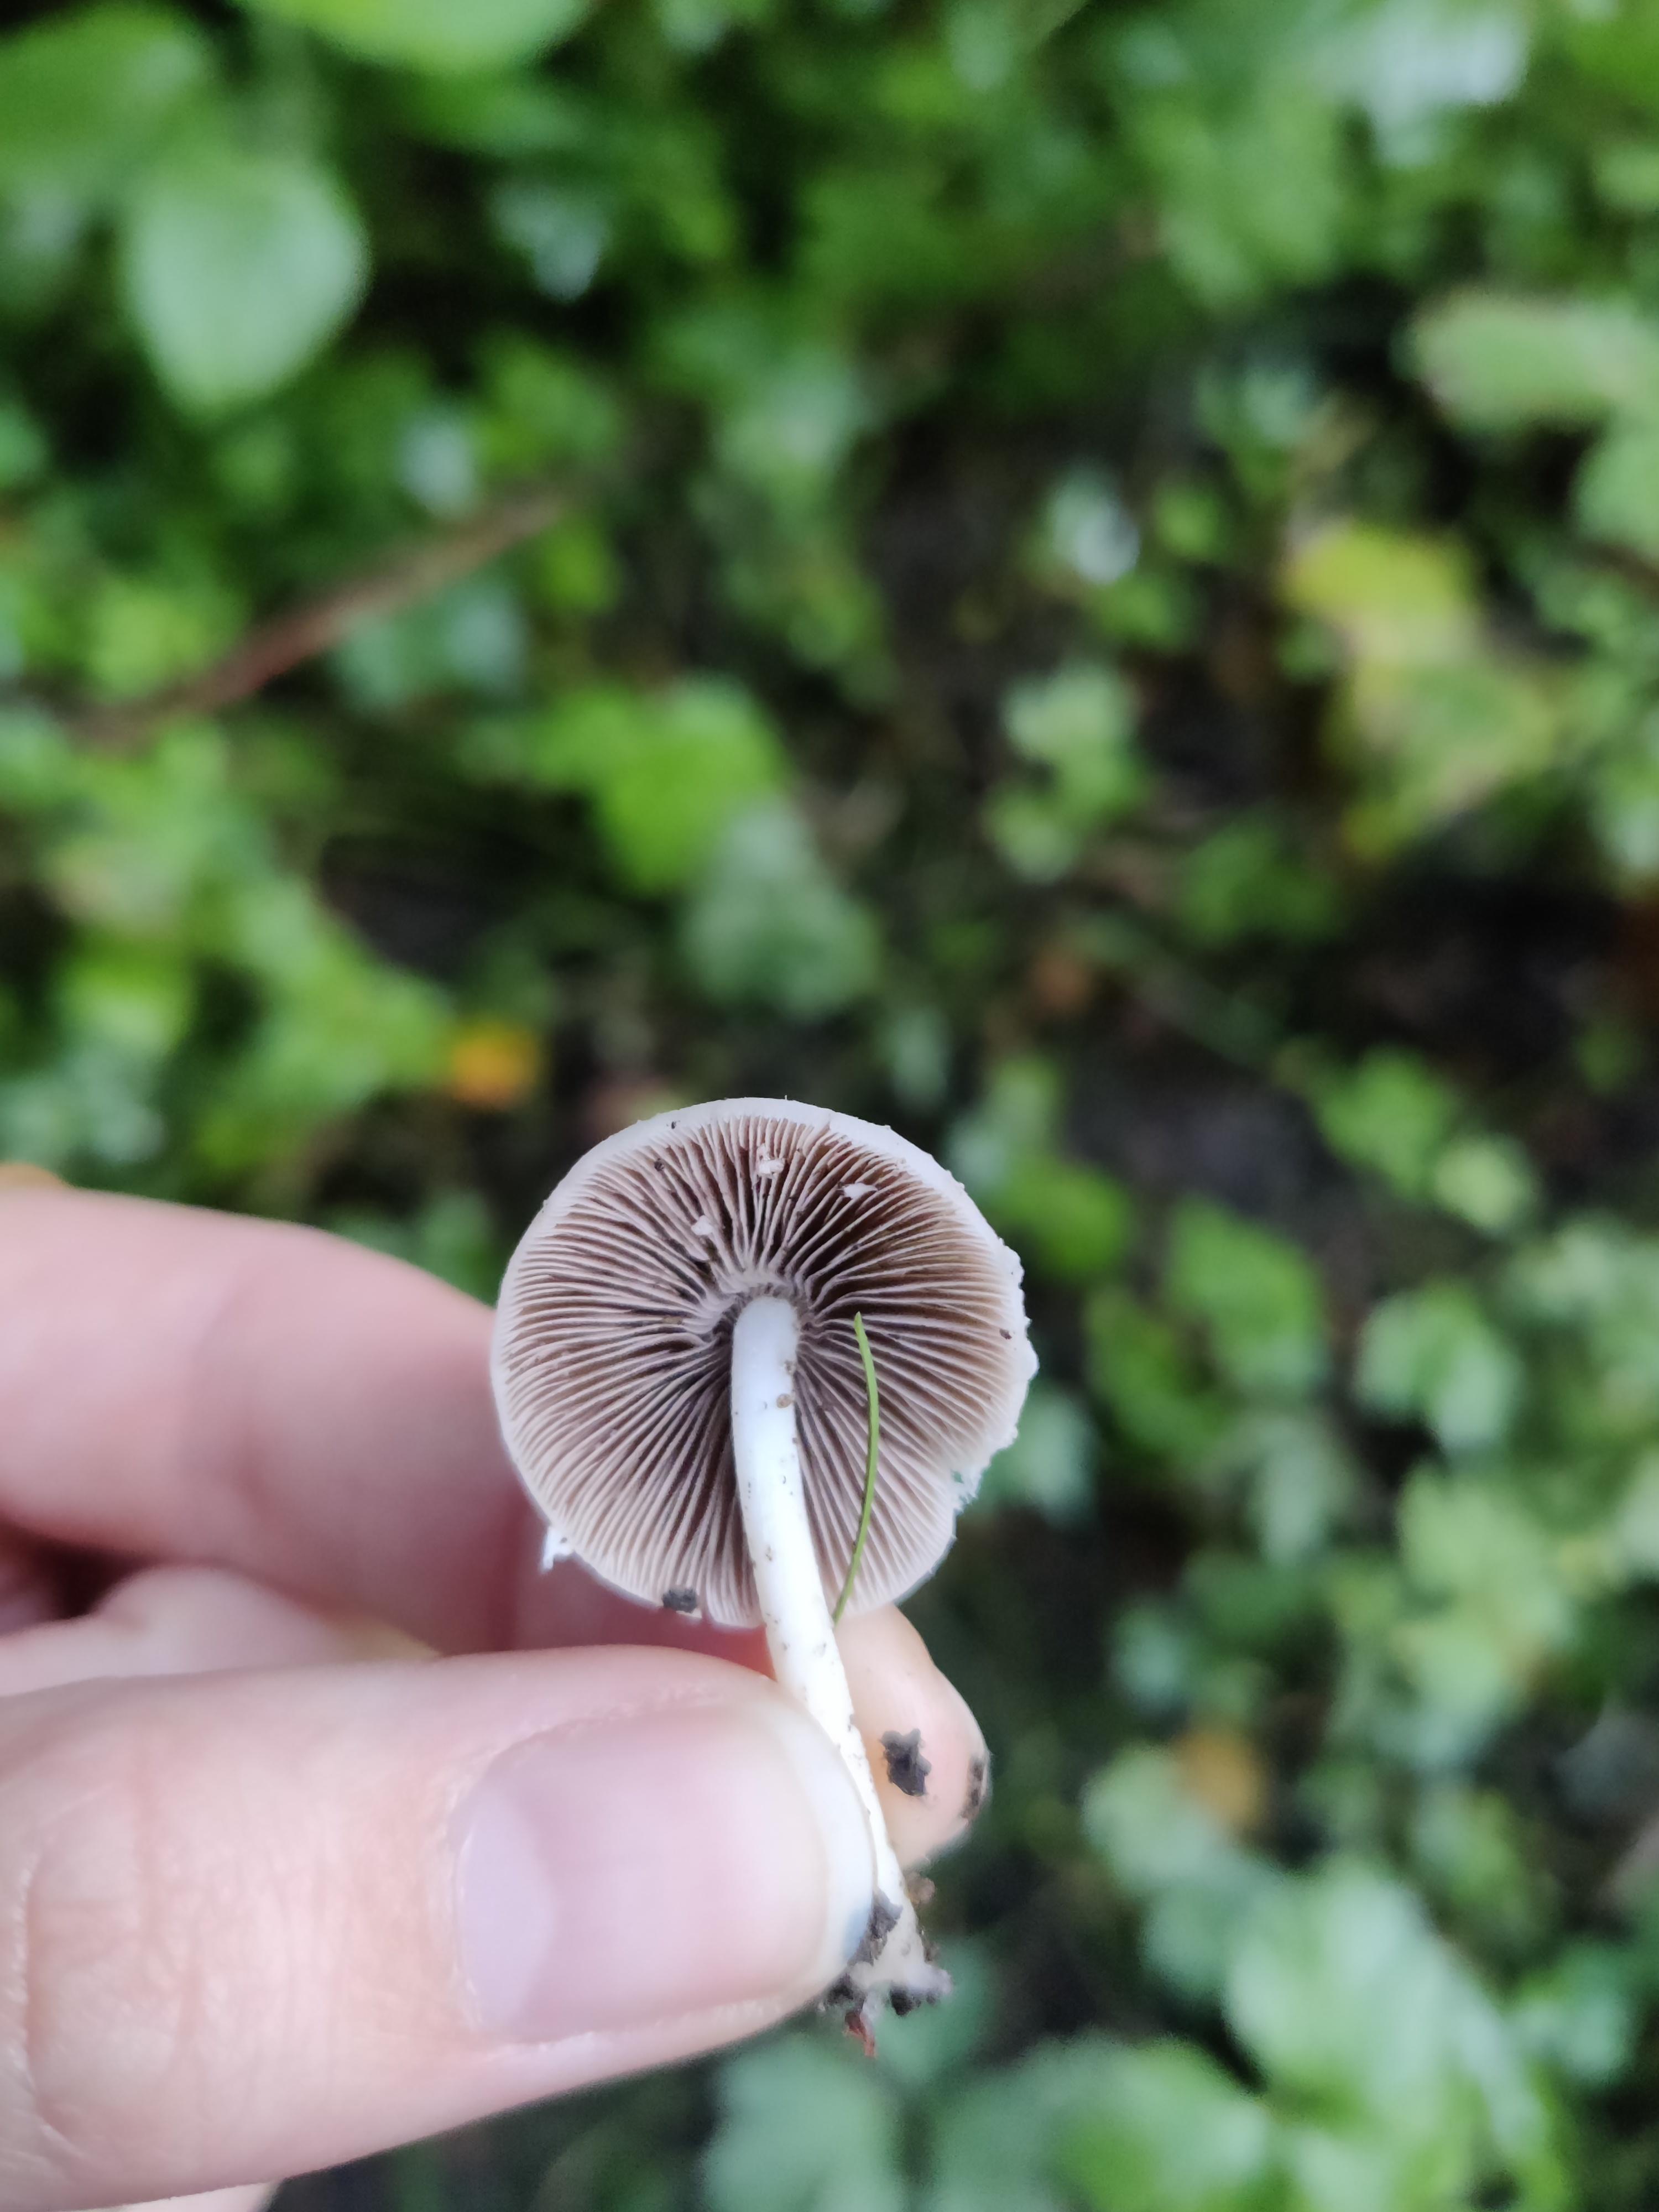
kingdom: Fungi
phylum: Basidiomycota
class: Agaricomycetes
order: Agaricales
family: Psathyrellaceae
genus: Candolleomyces
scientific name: Candolleomyces candolleanus
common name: Candolles mørkhat
